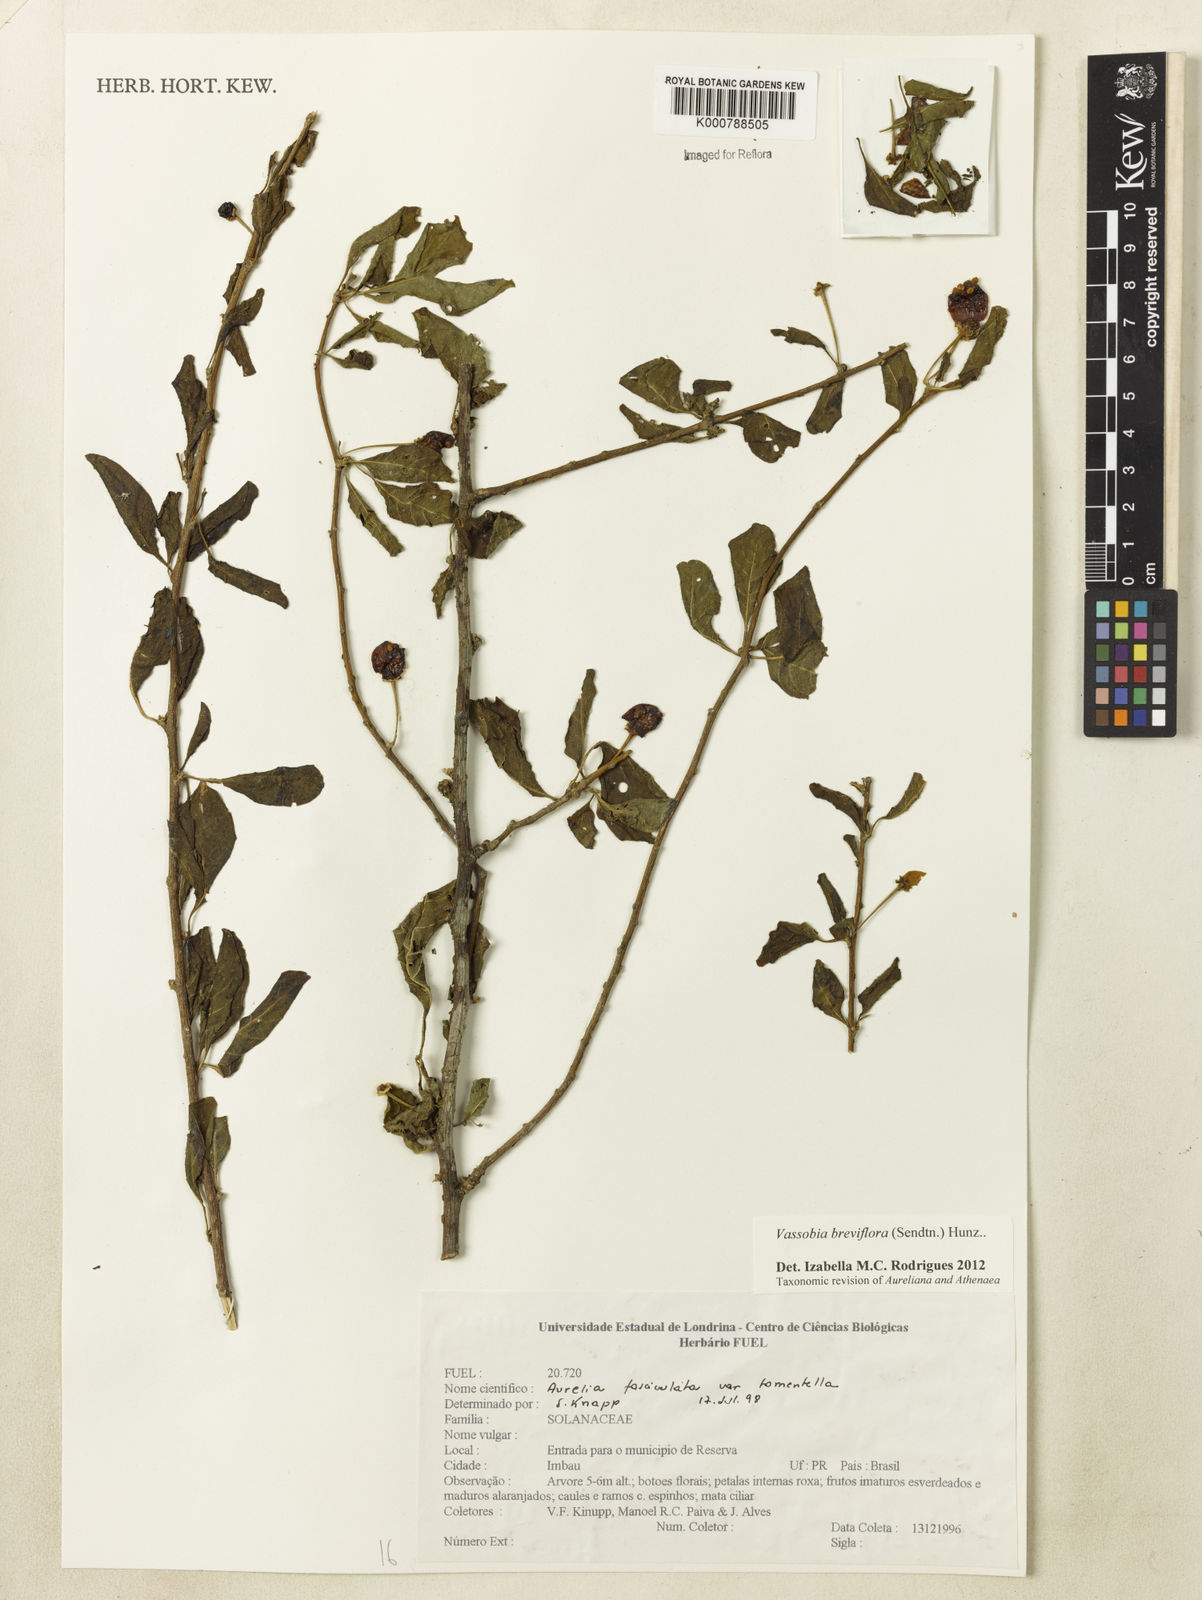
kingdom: Plantae
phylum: Tracheophyta
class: Magnoliopsida
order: Solanales
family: Solanaceae
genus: Vassobia
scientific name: Vassobia breviflora
